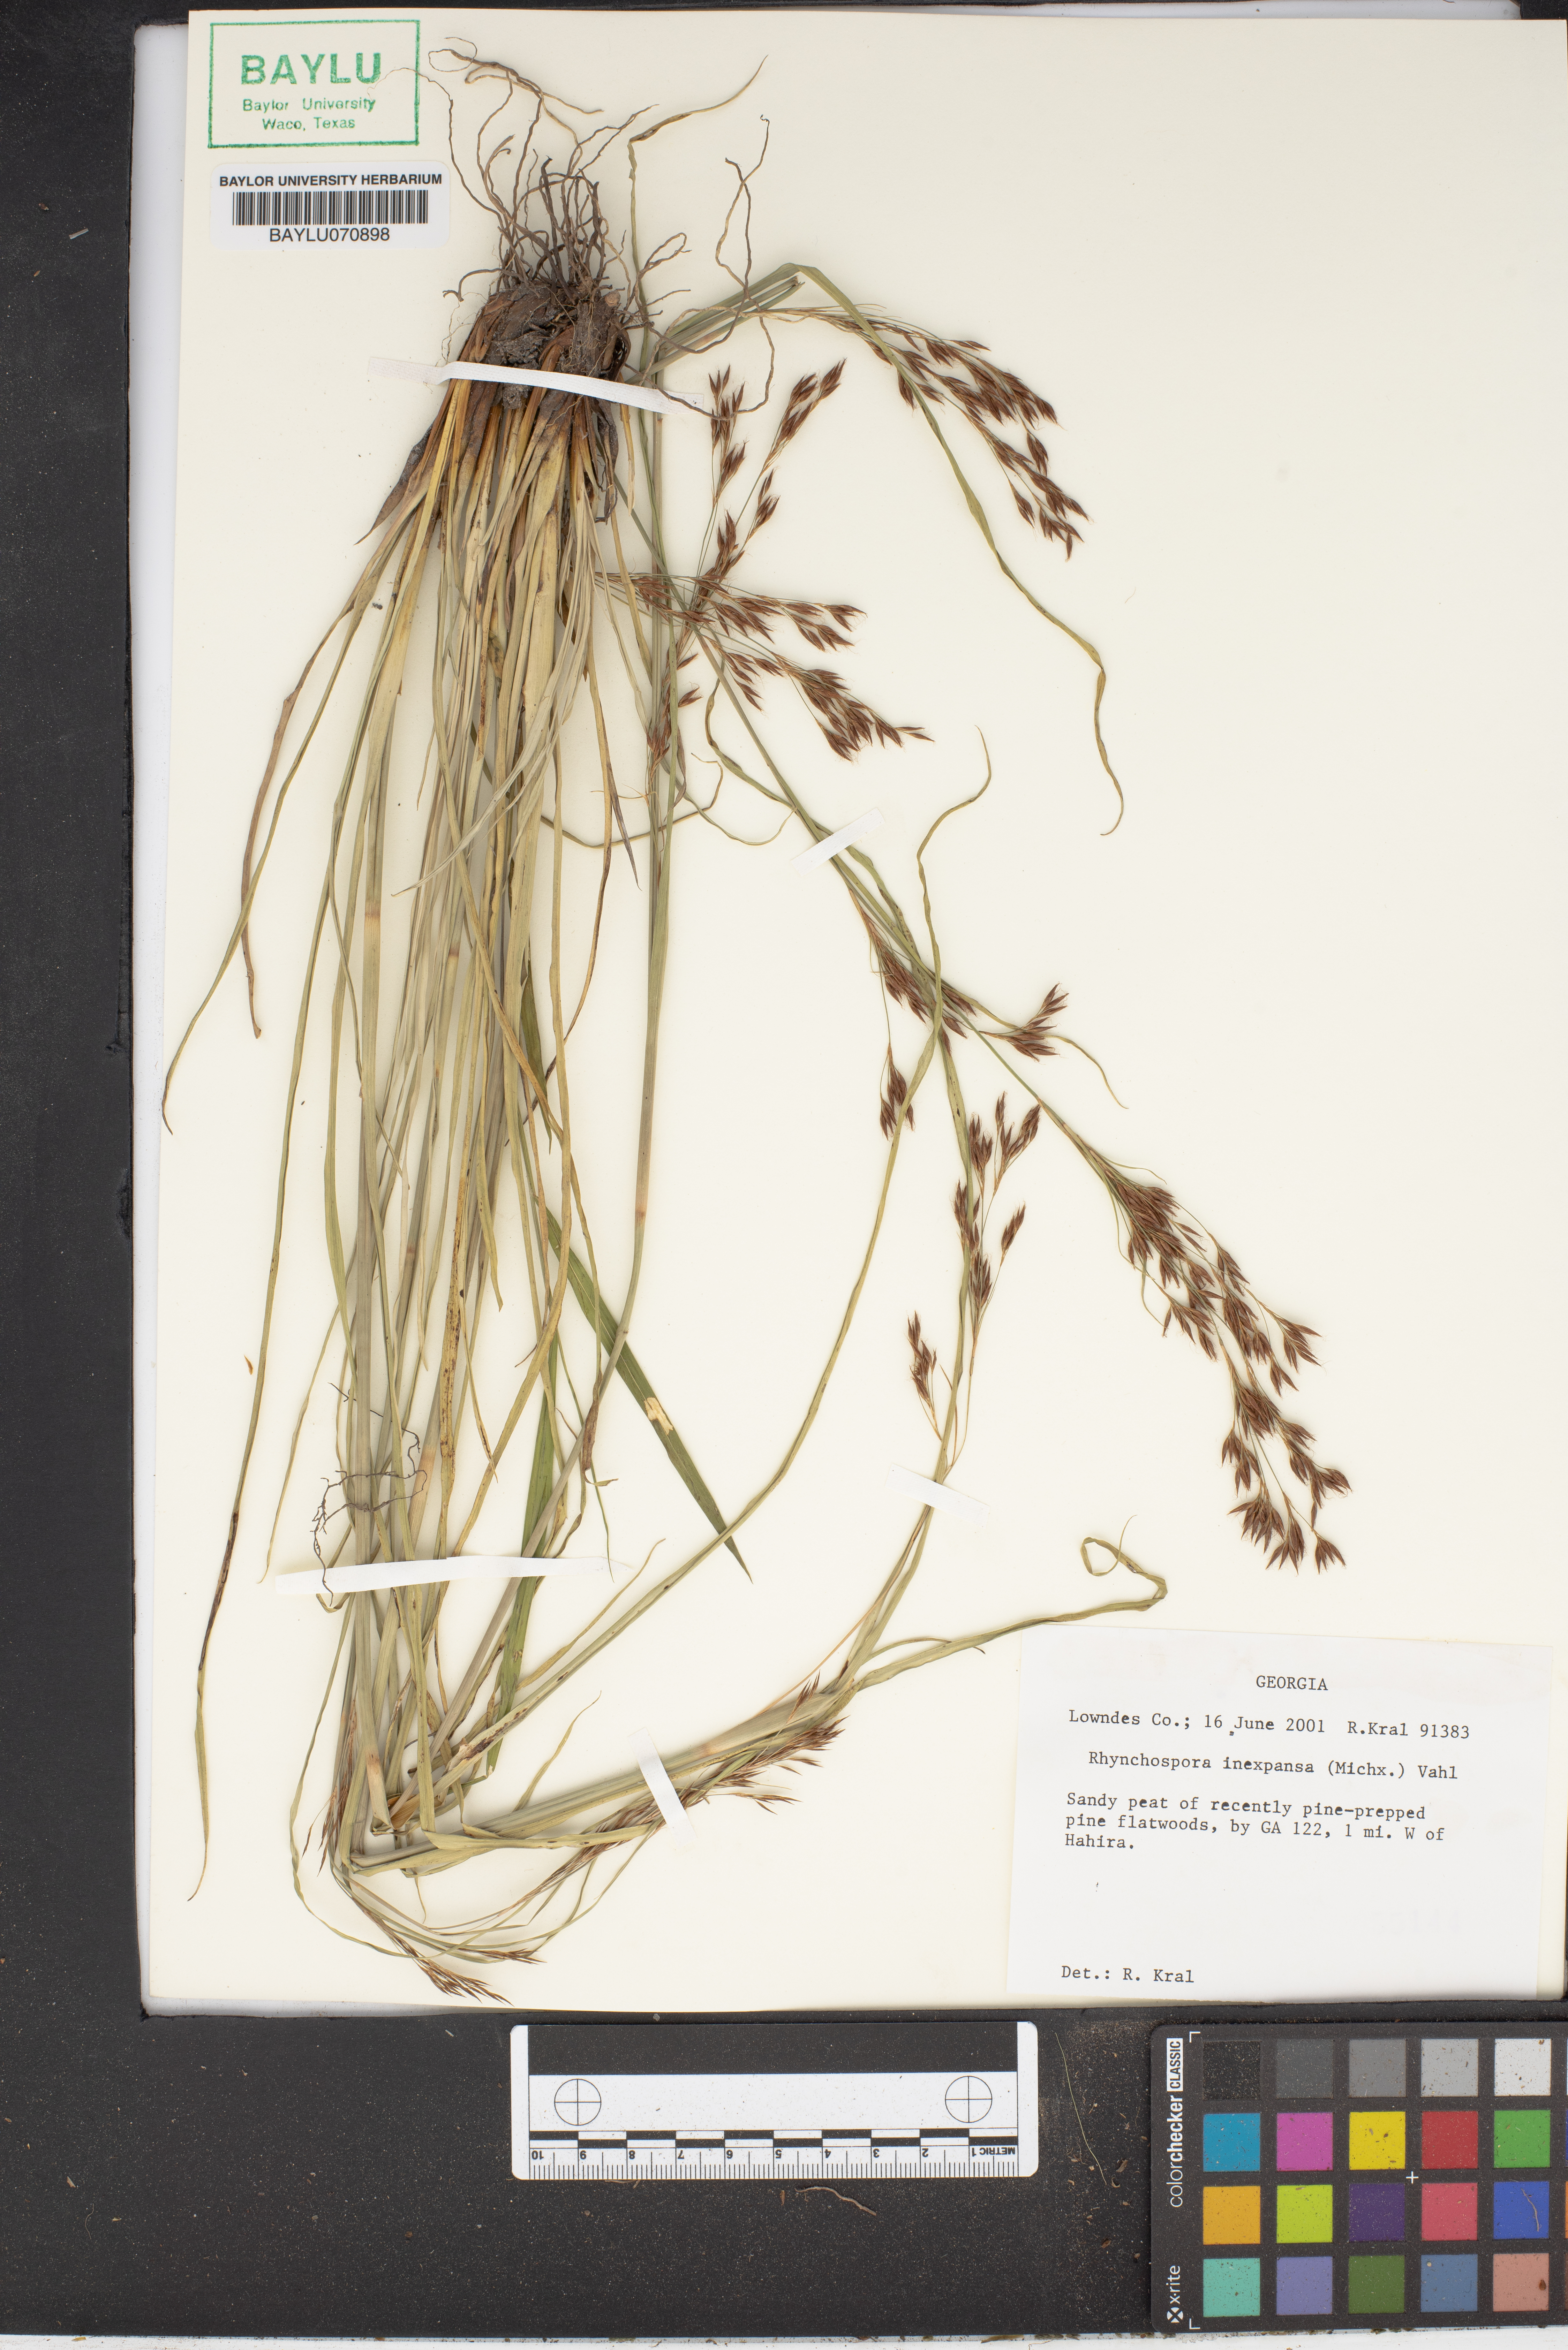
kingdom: Plantae
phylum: Tracheophyta
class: Liliopsida
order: Poales
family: Cyperaceae
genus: Rhynchospora
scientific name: Rhynchospora inexpansa
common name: Nodding beaksedge
